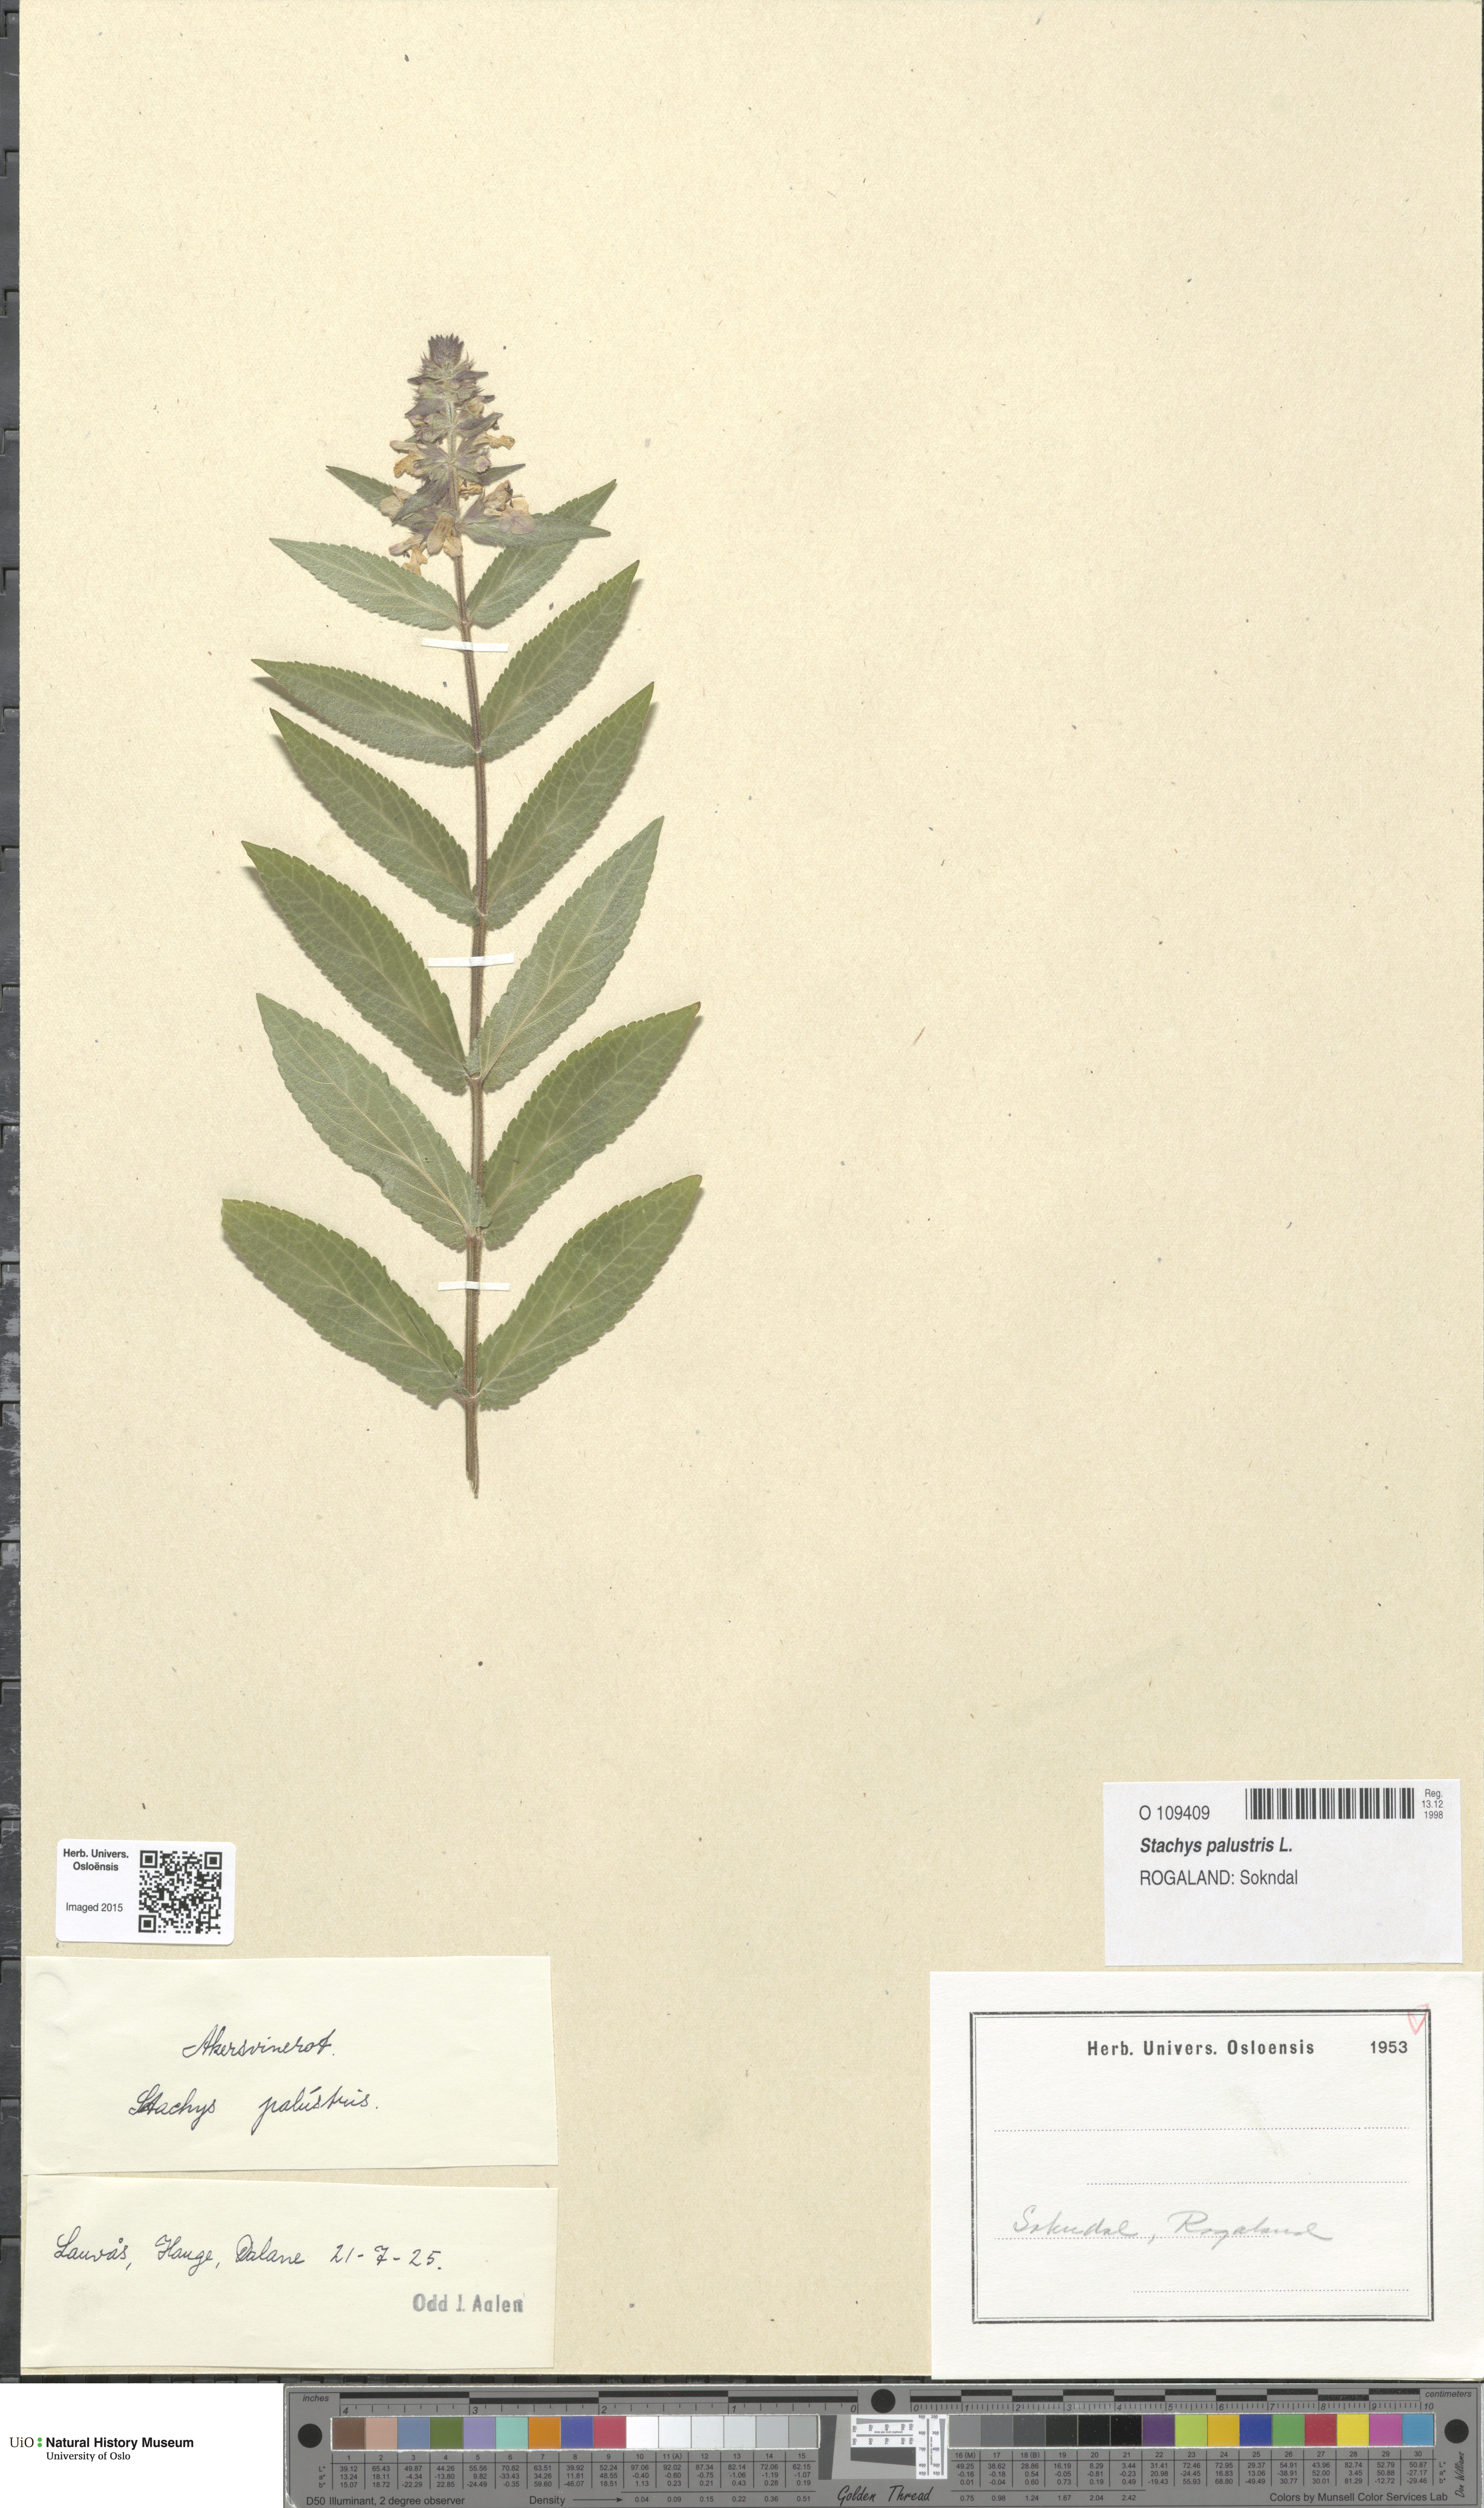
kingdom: Plantae
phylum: Tracheophyta
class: Magnoliopsida
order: Lamiales
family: Lamiaceae
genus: Stachys
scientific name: Stachys palustris
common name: Marsh woundwort
